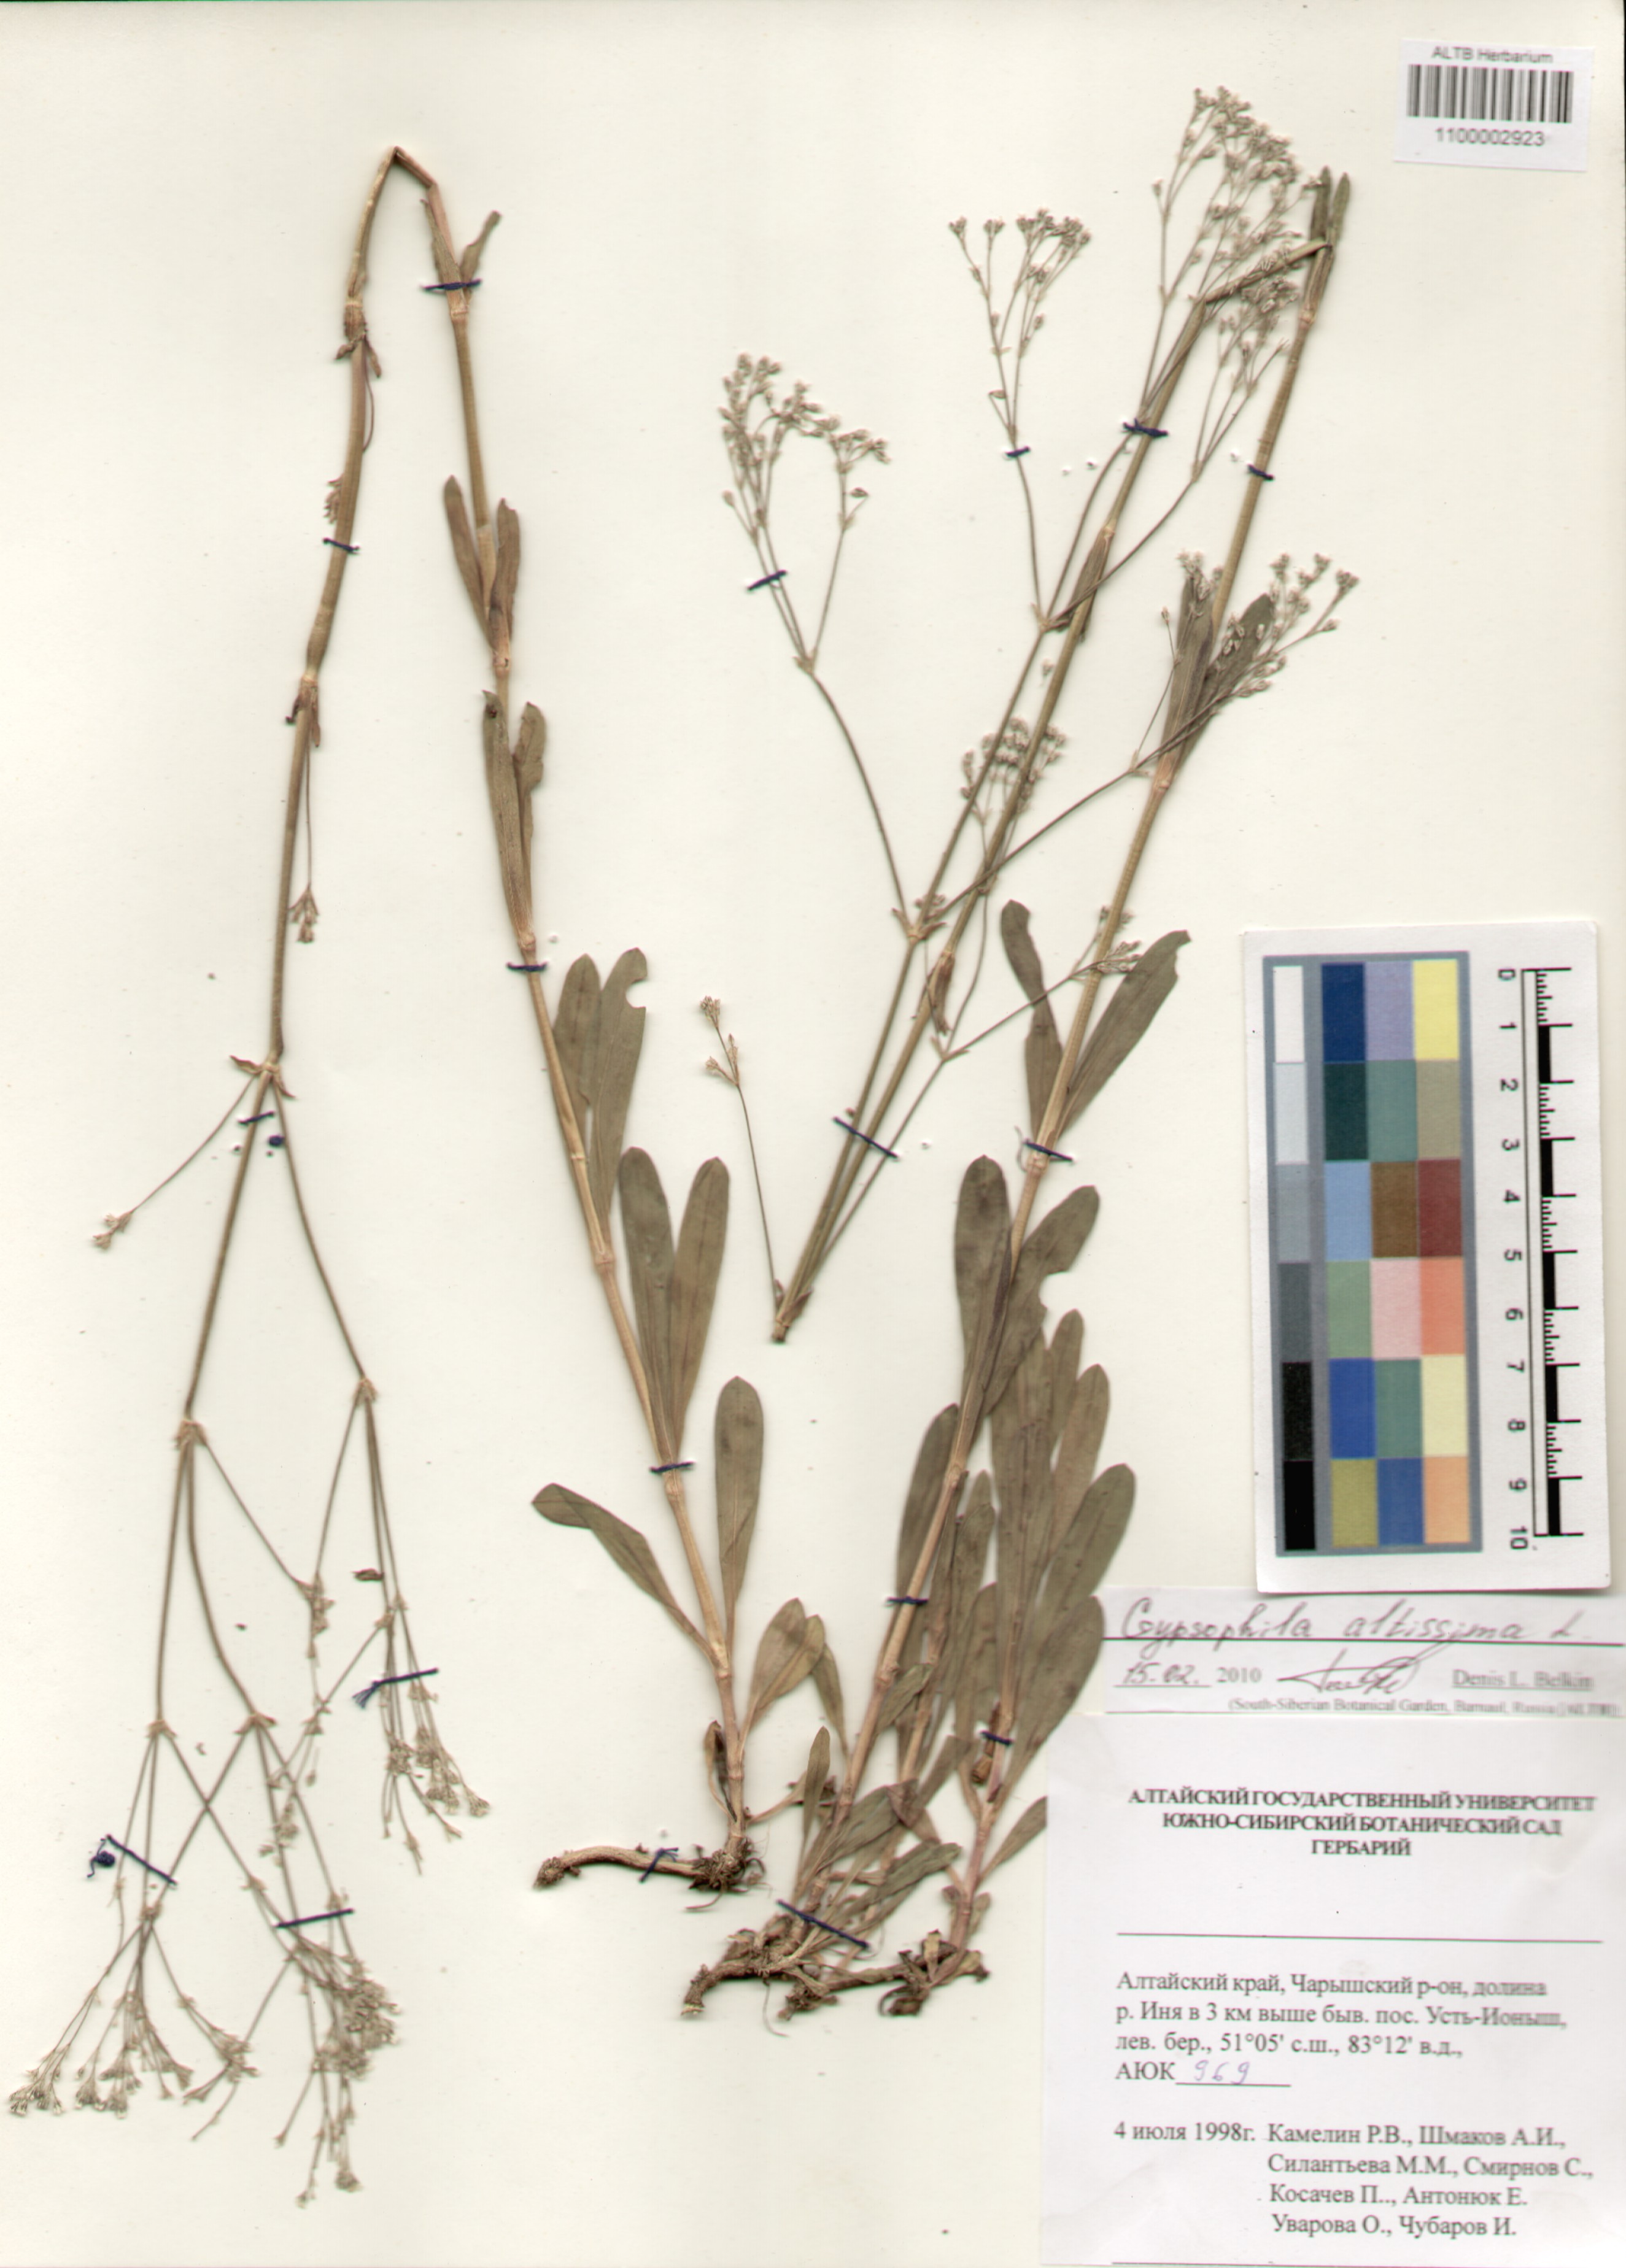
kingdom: Plantae
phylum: Tracheophyta
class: Magnoliopsida
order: Caryophyllales
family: Caryophyllaceae
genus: Gypsophila
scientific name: Gypsophila altissima
